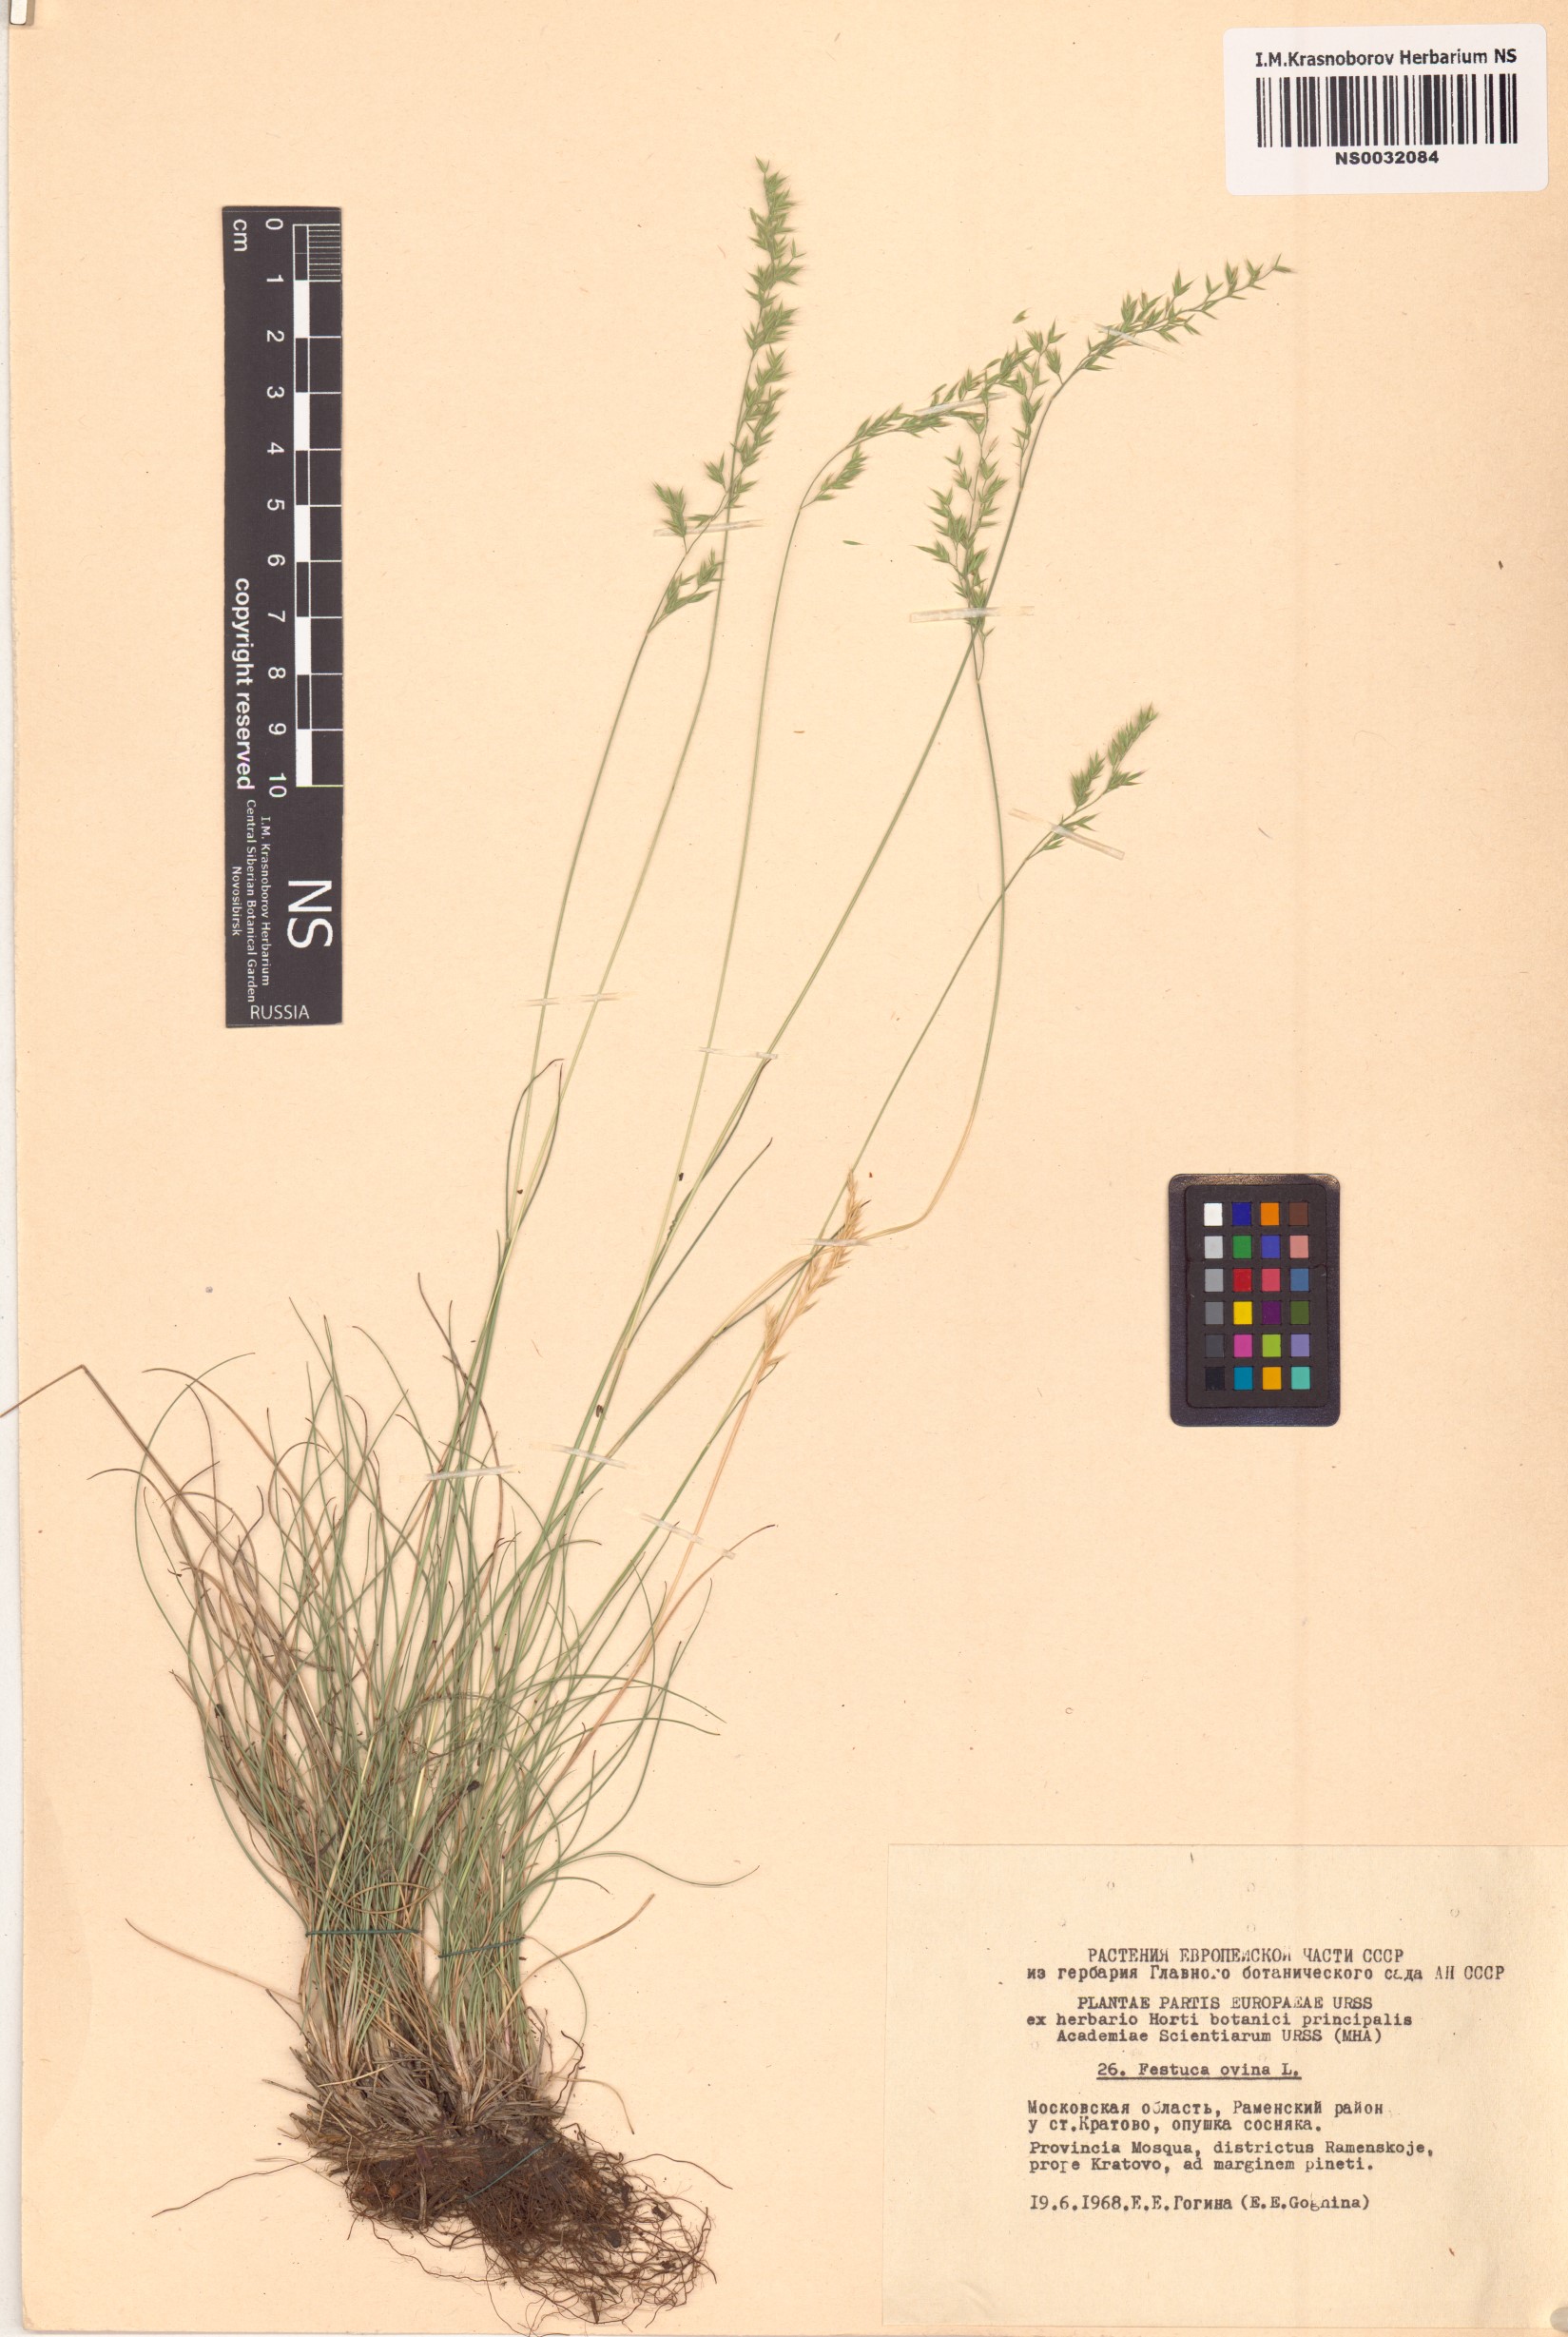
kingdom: Plantae
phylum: Tracheophyta
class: Liliopsida
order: Poales
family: Poaceae
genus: Festuca
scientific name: Festuca ovina
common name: Sheep fescue
